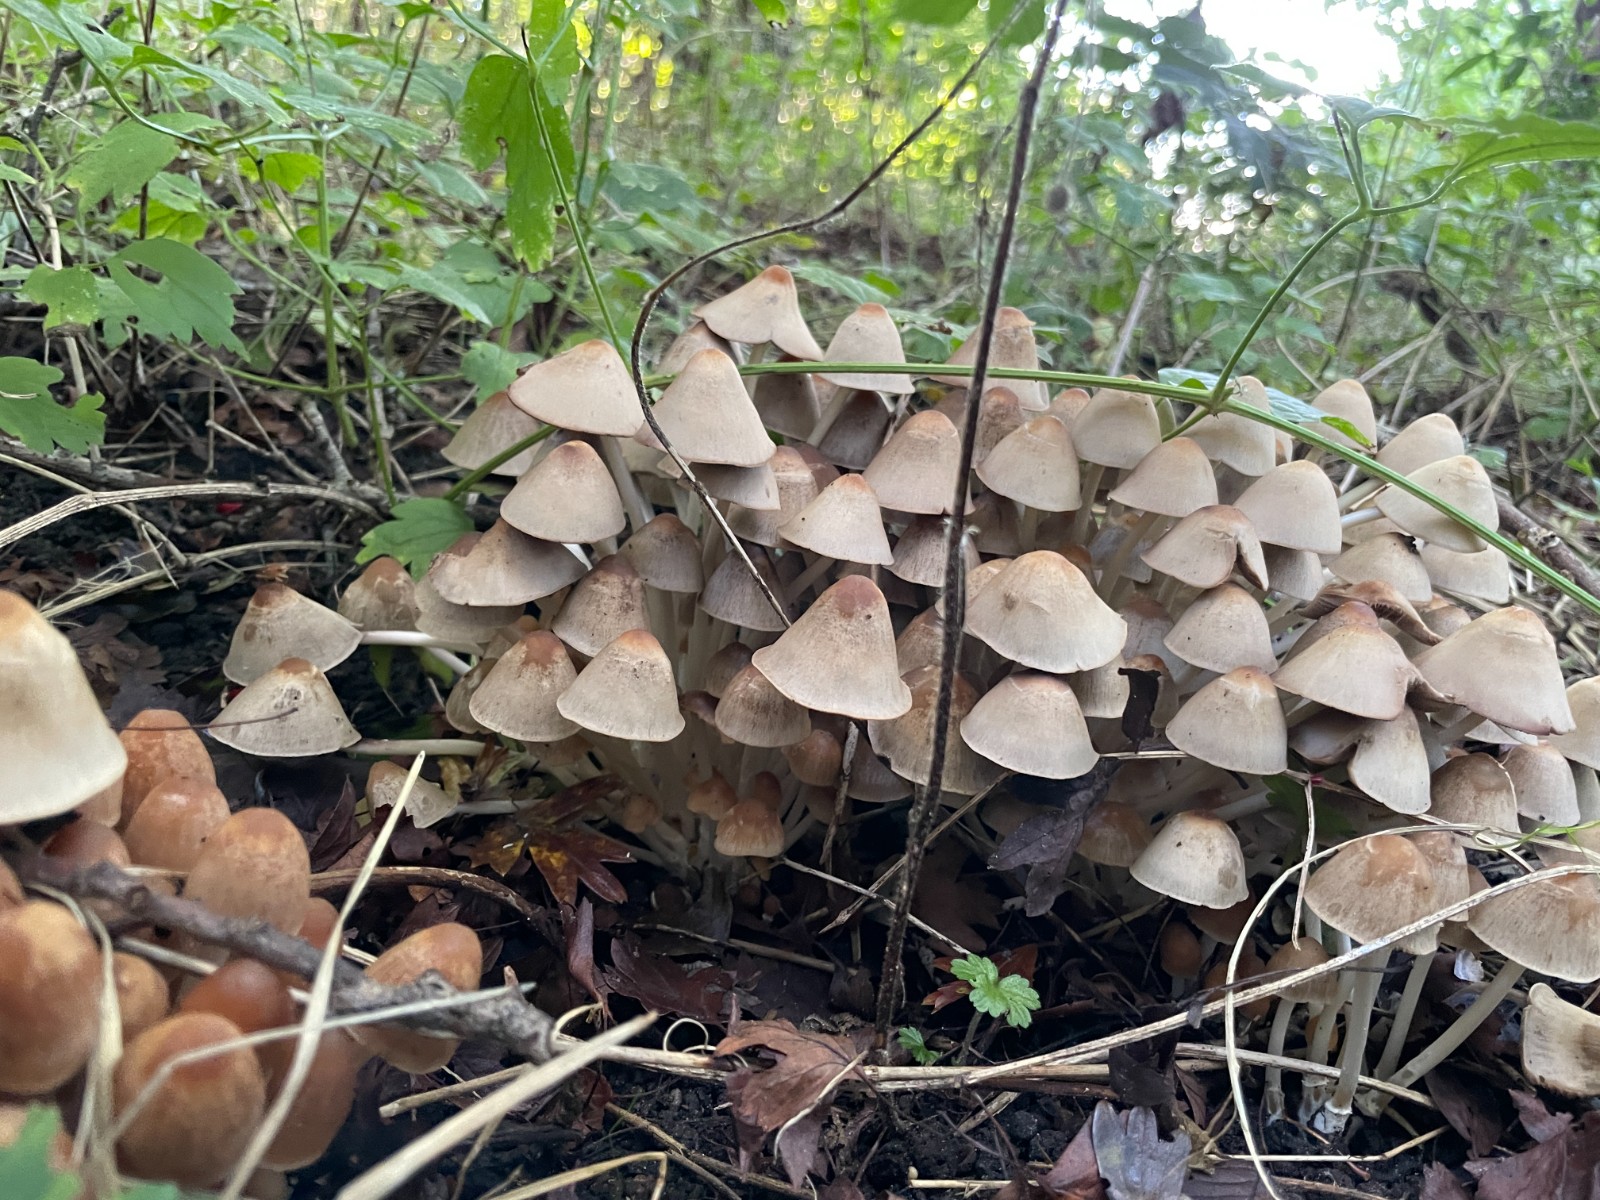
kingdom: Fungi
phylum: Basidiomycota
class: Agaricomycetes
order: Agaricales
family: Psathyrellaceae
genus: Britzelmayria
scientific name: Britzelmayria multipedata
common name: knippe-mørkhat
